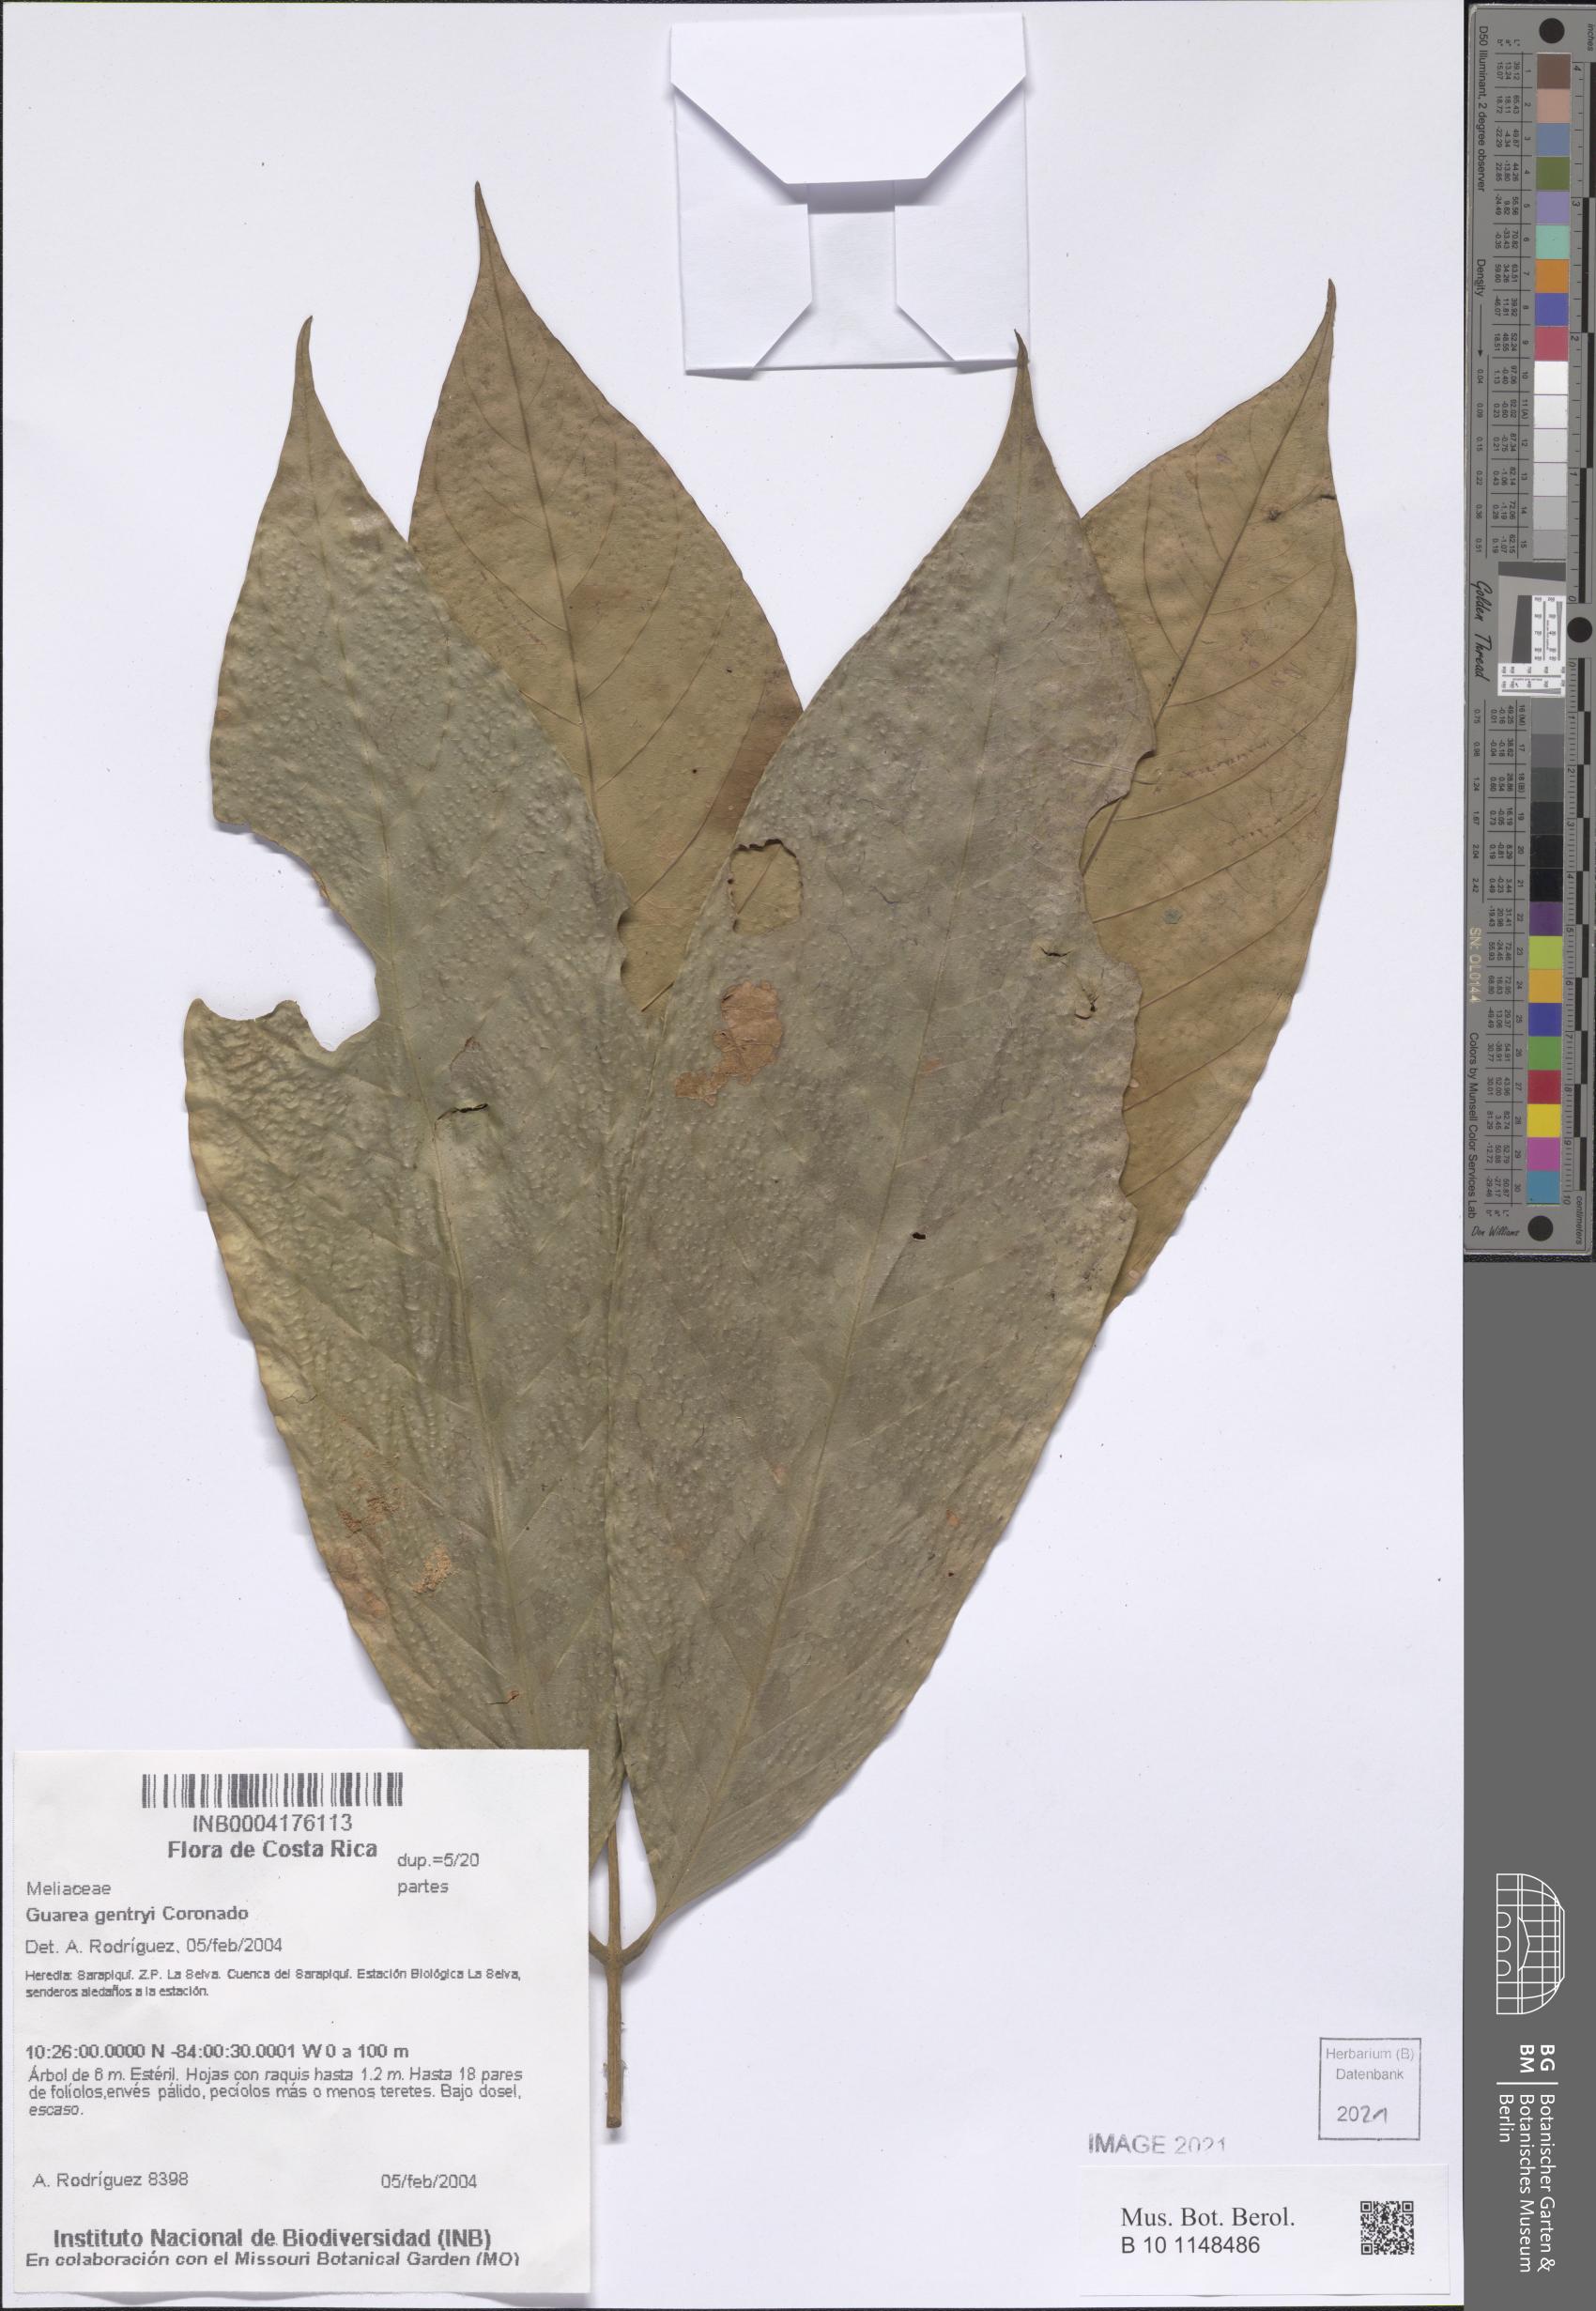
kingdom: Plantae
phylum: Tracheophyta
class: Magnoliopsida
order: Sapindales
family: Meliaceae
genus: Guarea
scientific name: Guarea gentryi
